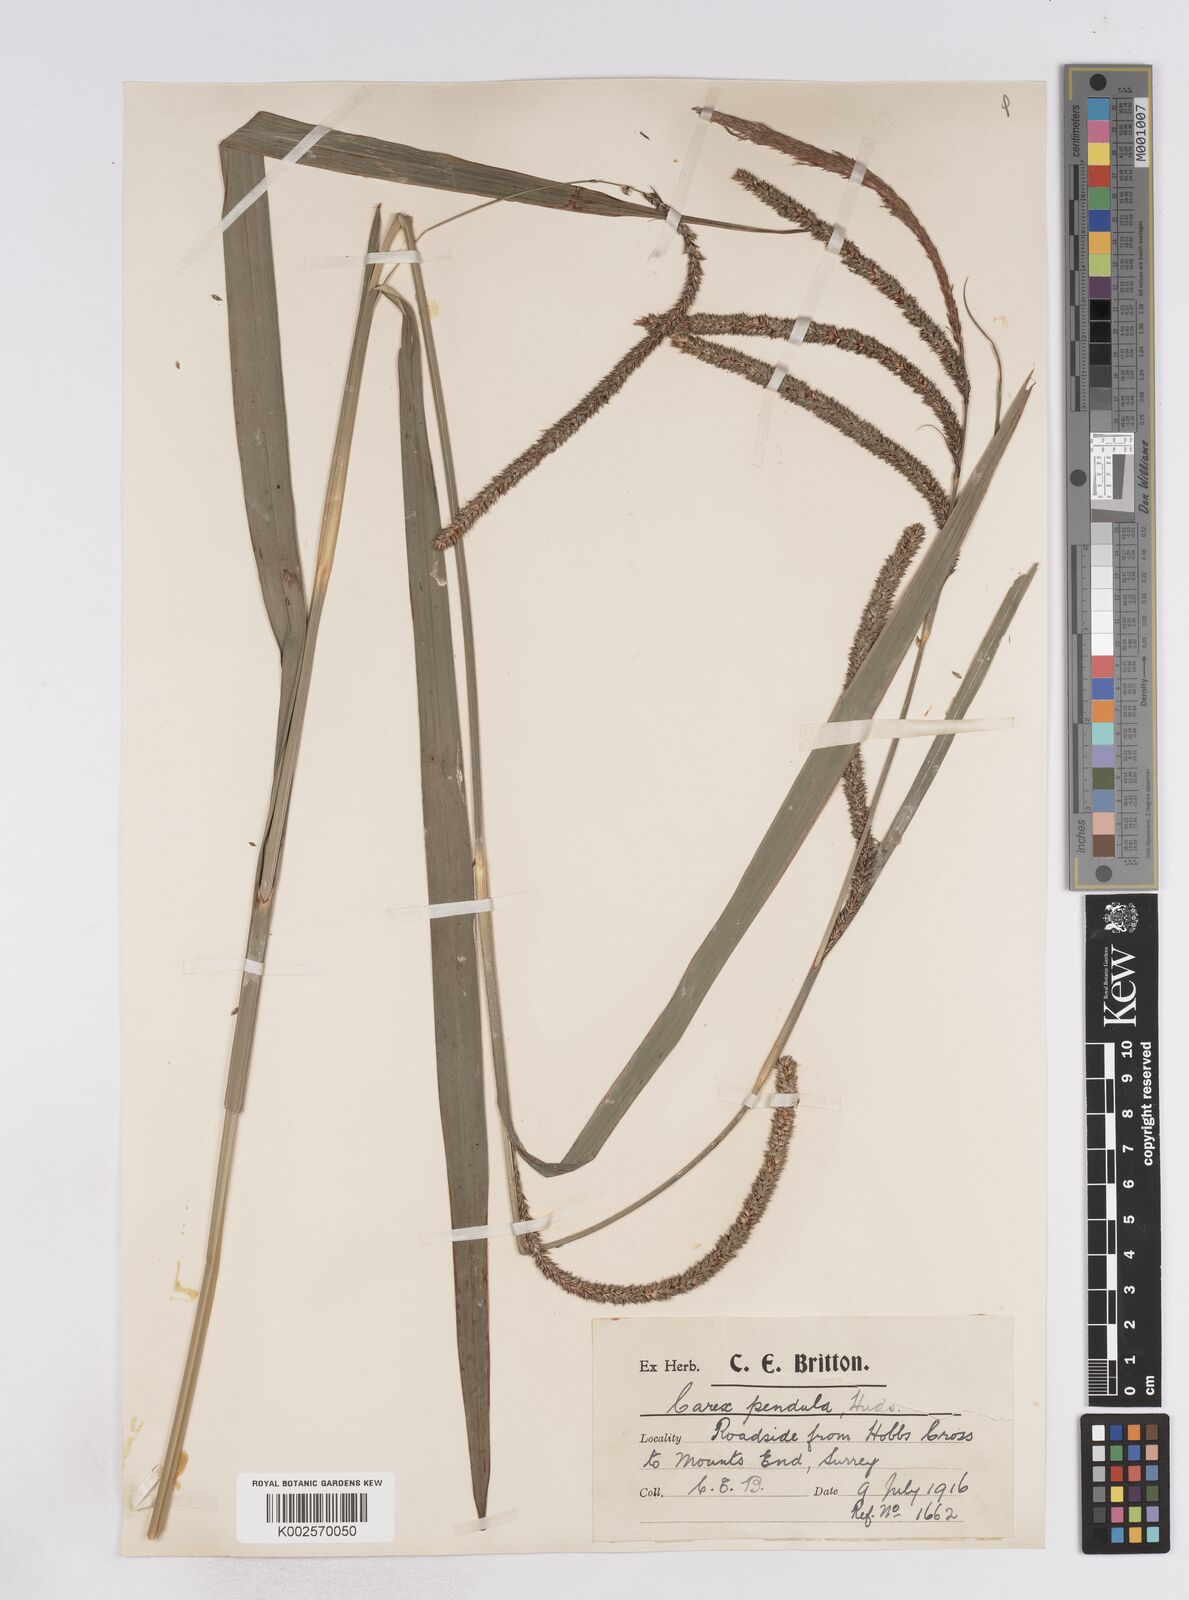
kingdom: Plantae
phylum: Tracheophyta
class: Liliopsida
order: Poales
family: Cyperaceae
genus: Carex
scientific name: Carex pendula
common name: Pendulous sedge
